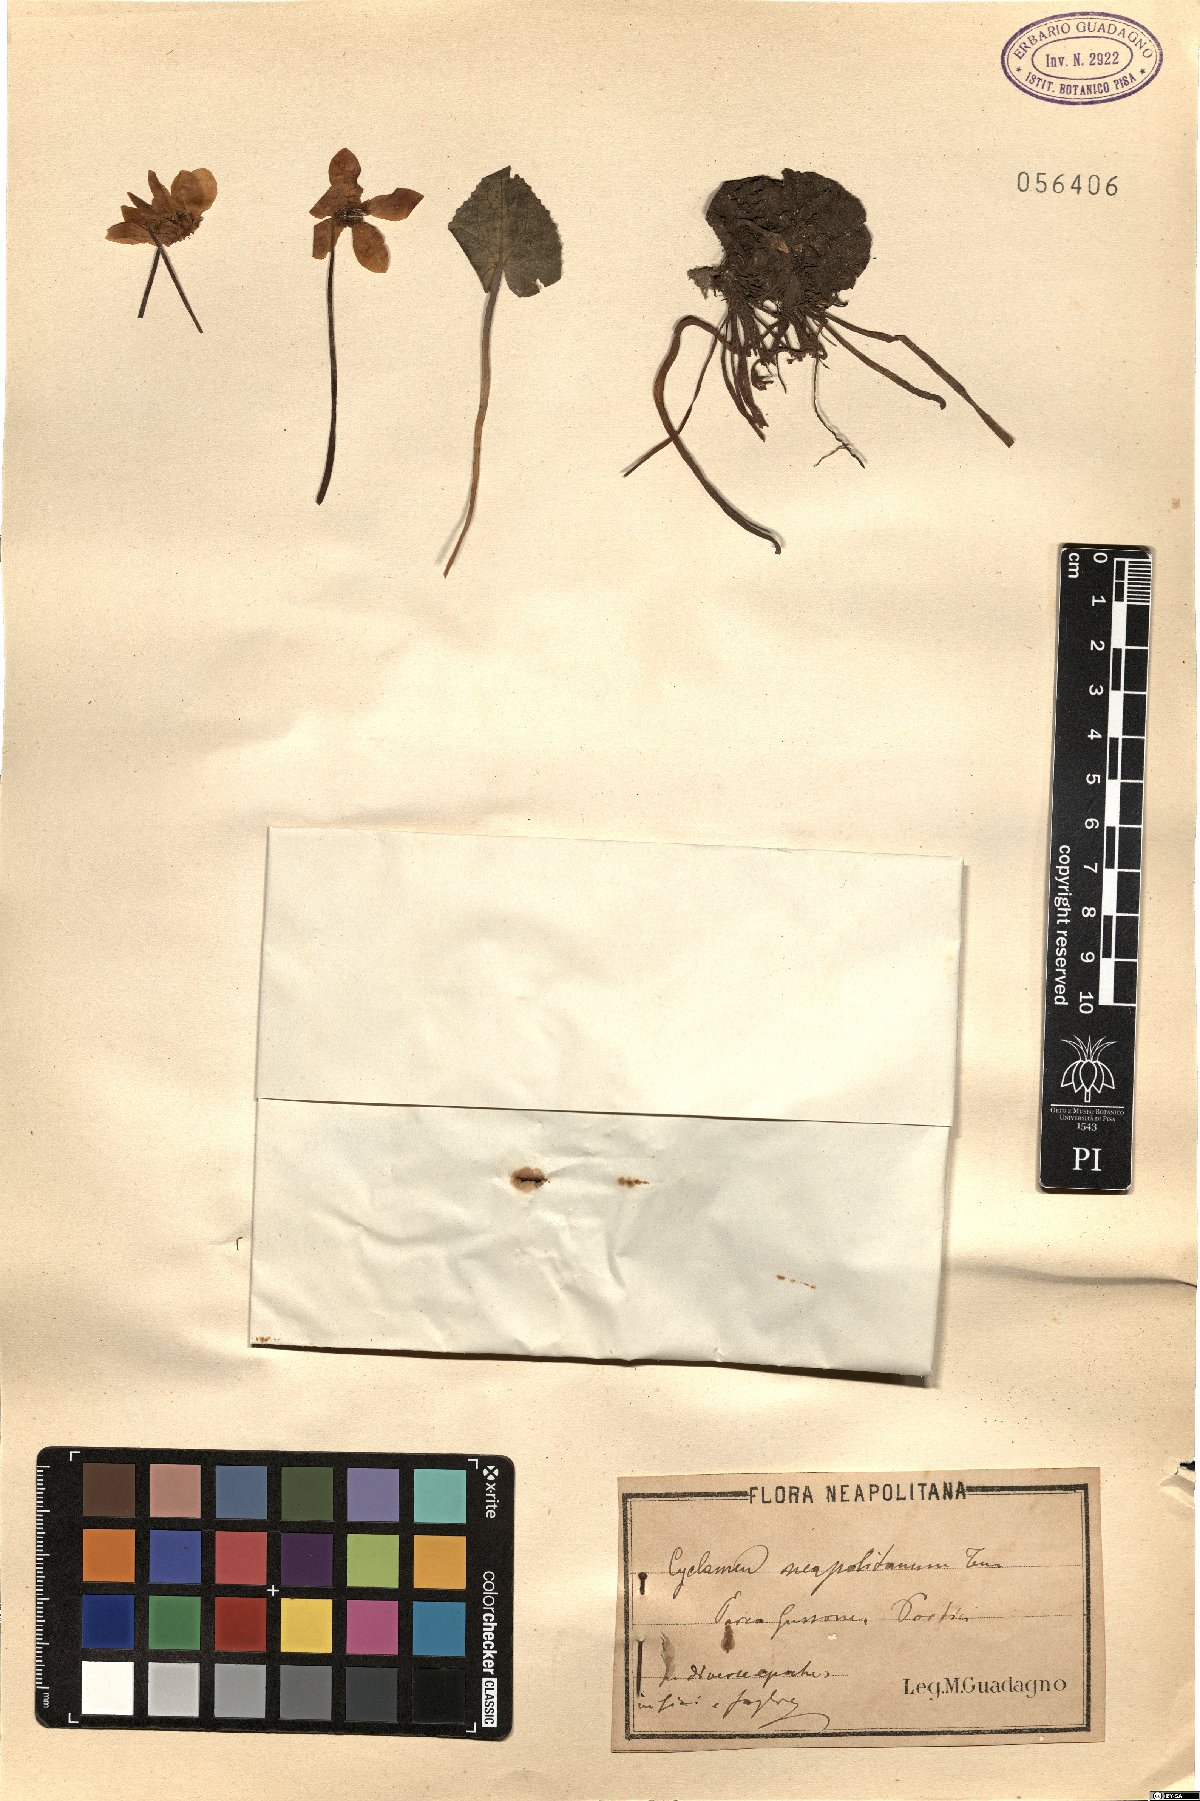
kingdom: Plantae
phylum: Tracheophyta
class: Magnoliopsida
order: Ericales
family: Primulaceae
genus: Cyclamen
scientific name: Cyclamen hederifolium
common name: Sowbread
